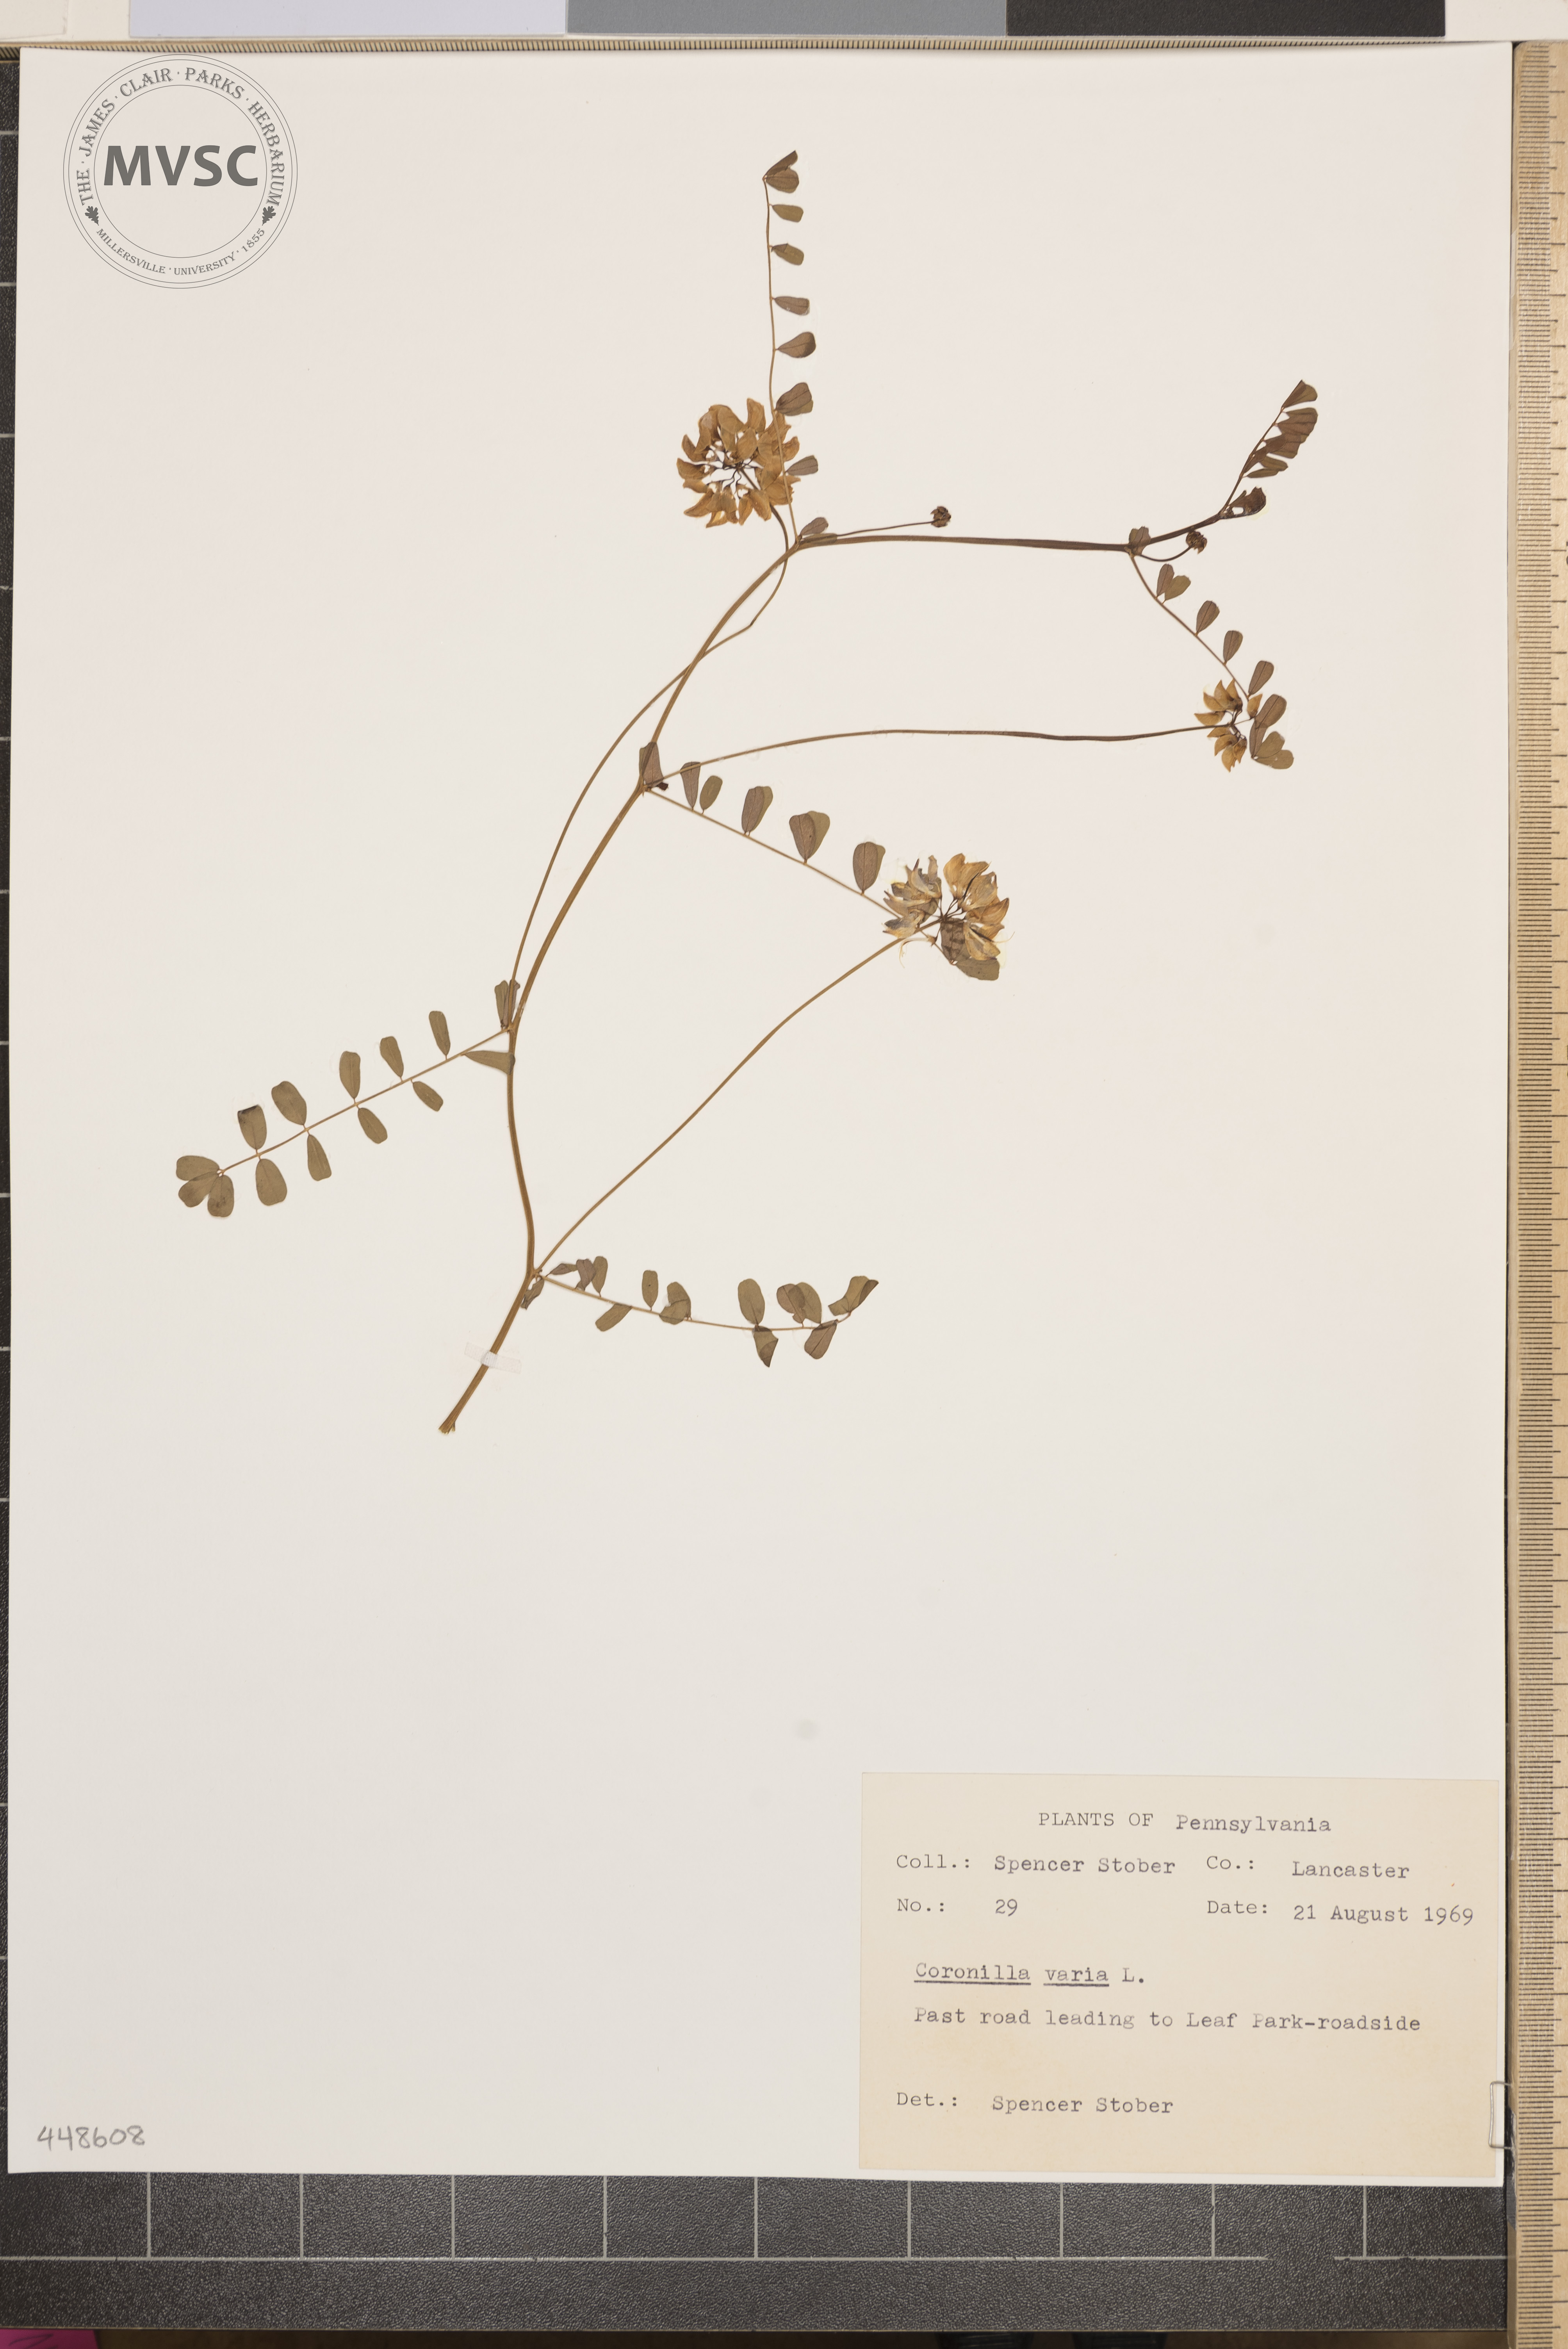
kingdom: Plantae
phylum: Tracheophyta
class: Magnoliopsida
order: Fabales
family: Fabaceae
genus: Coronilla
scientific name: Coronilla varia
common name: Crownvetch
